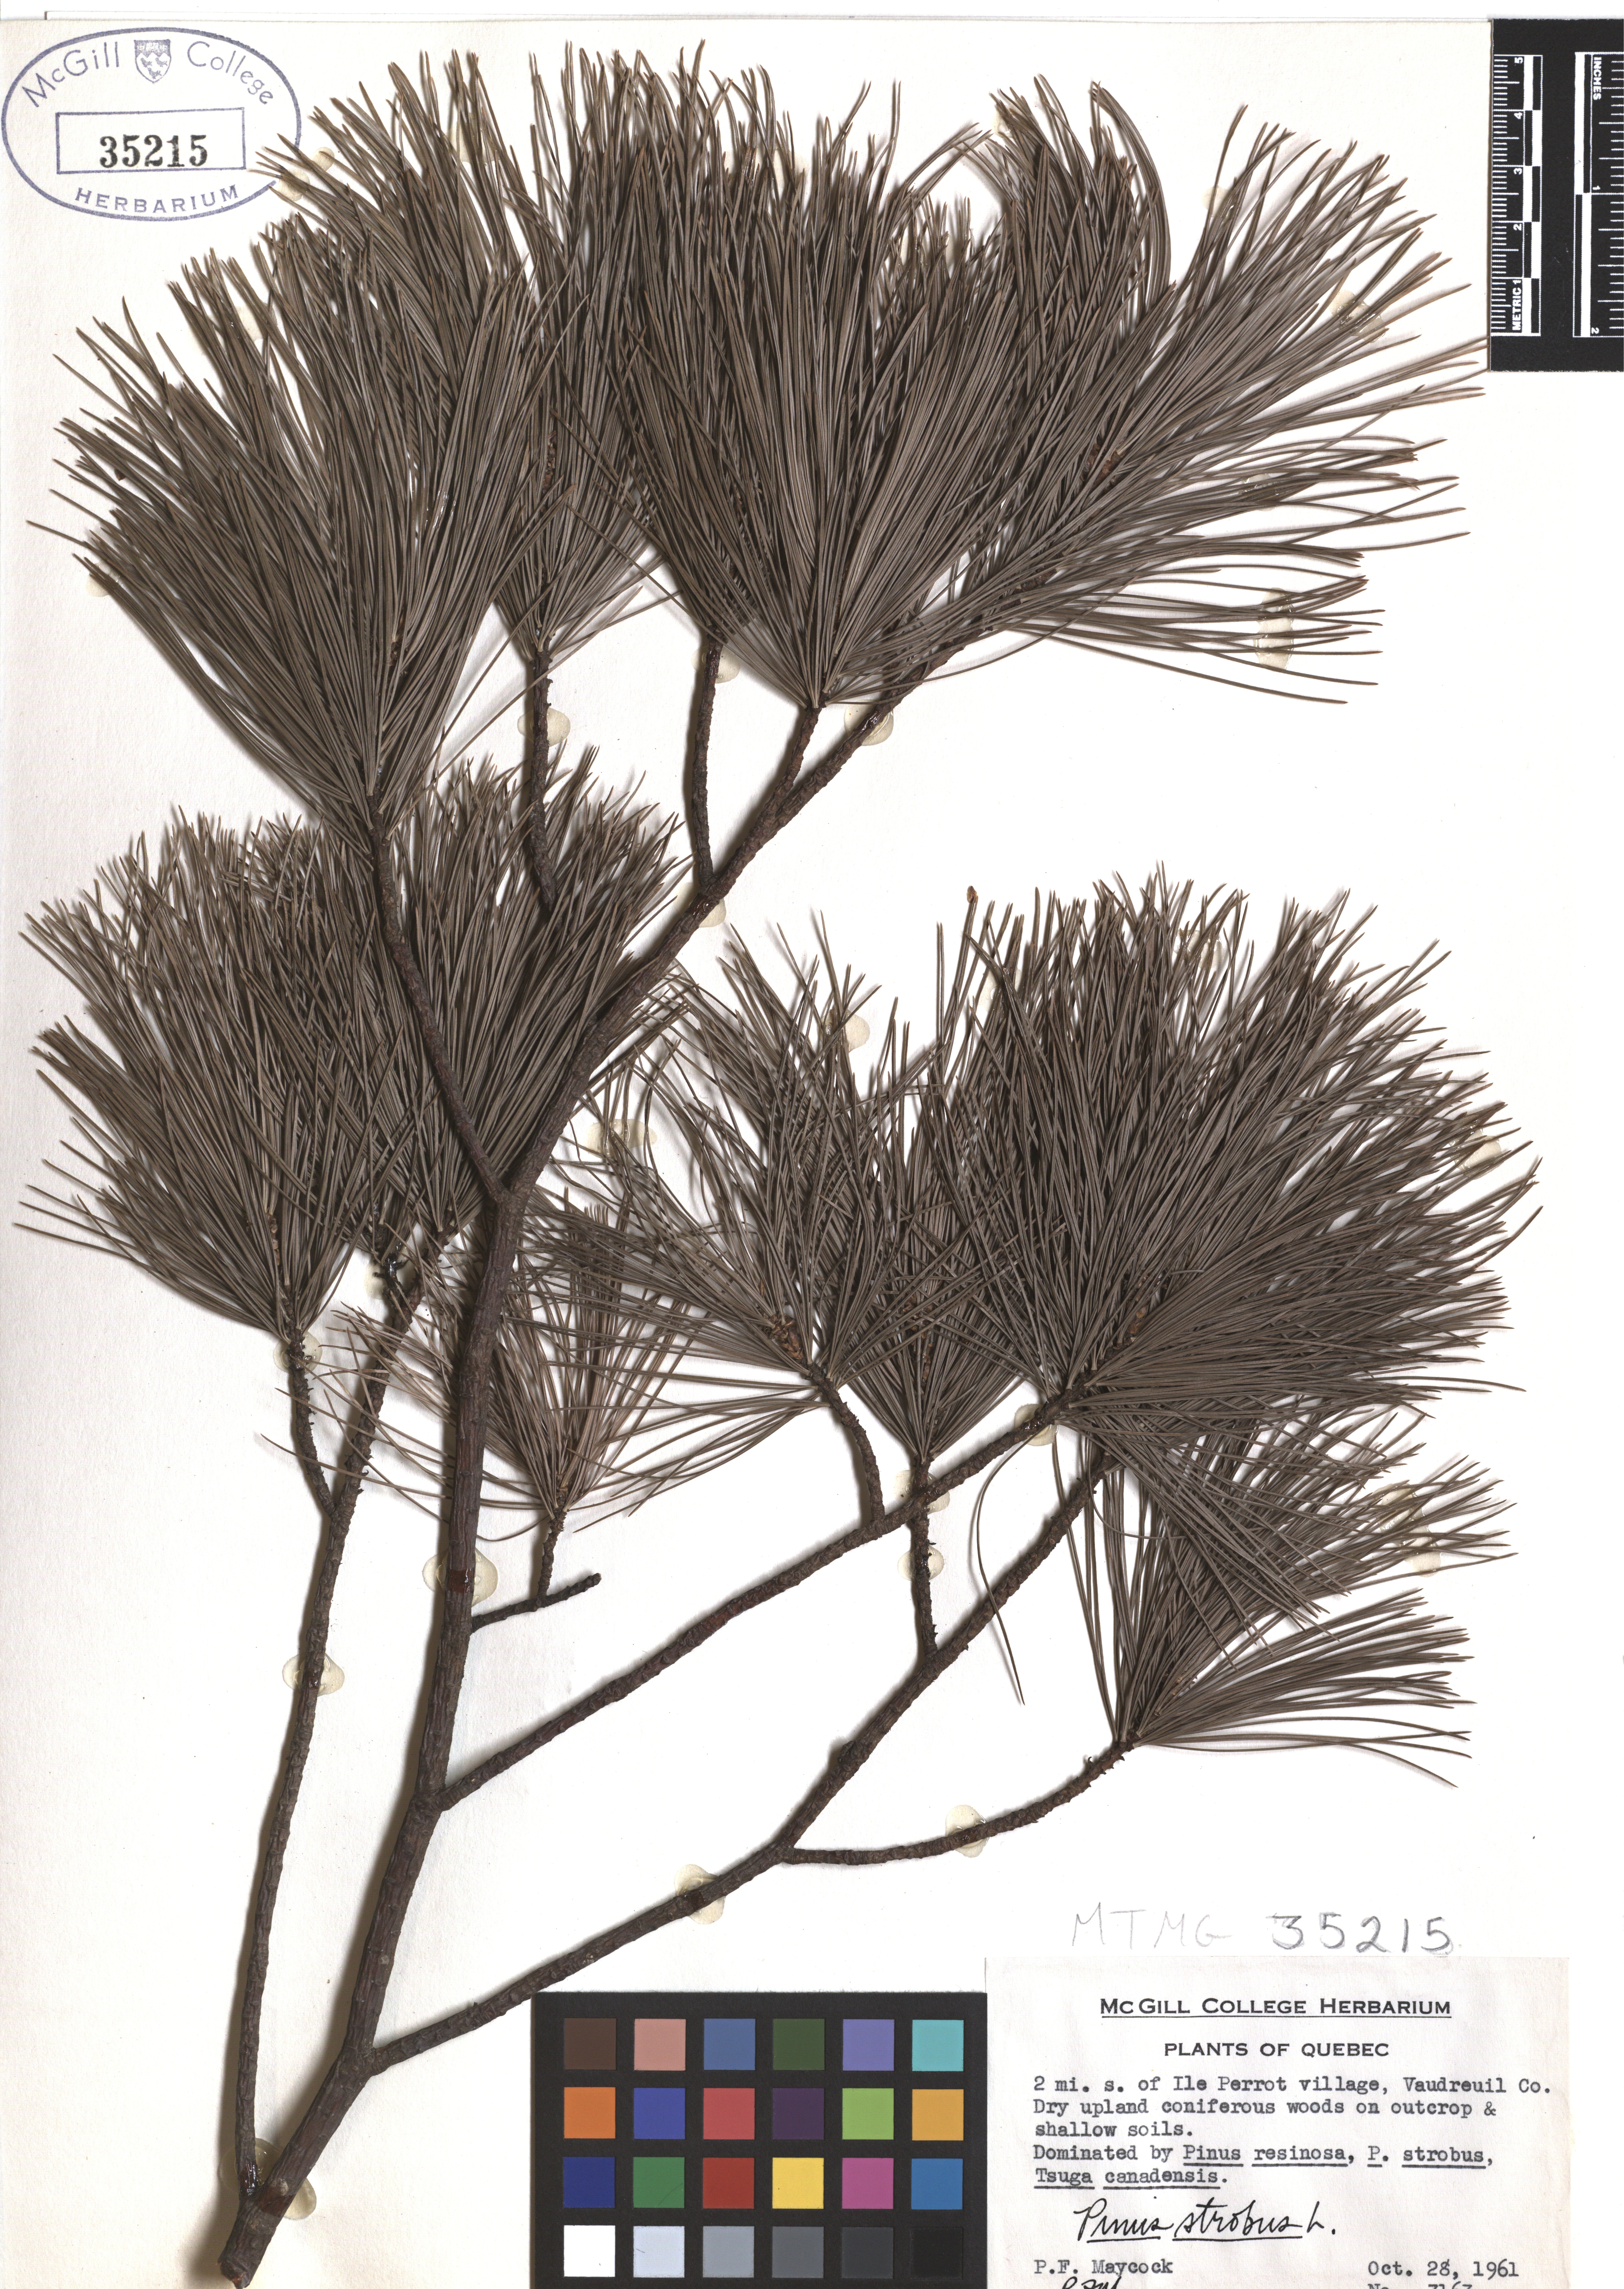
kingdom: Plantae
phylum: Tracheophyta
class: Pinopsida
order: Pinales
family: Pinaceae
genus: Pinus
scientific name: Pinus strobus
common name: Weymouth pine
